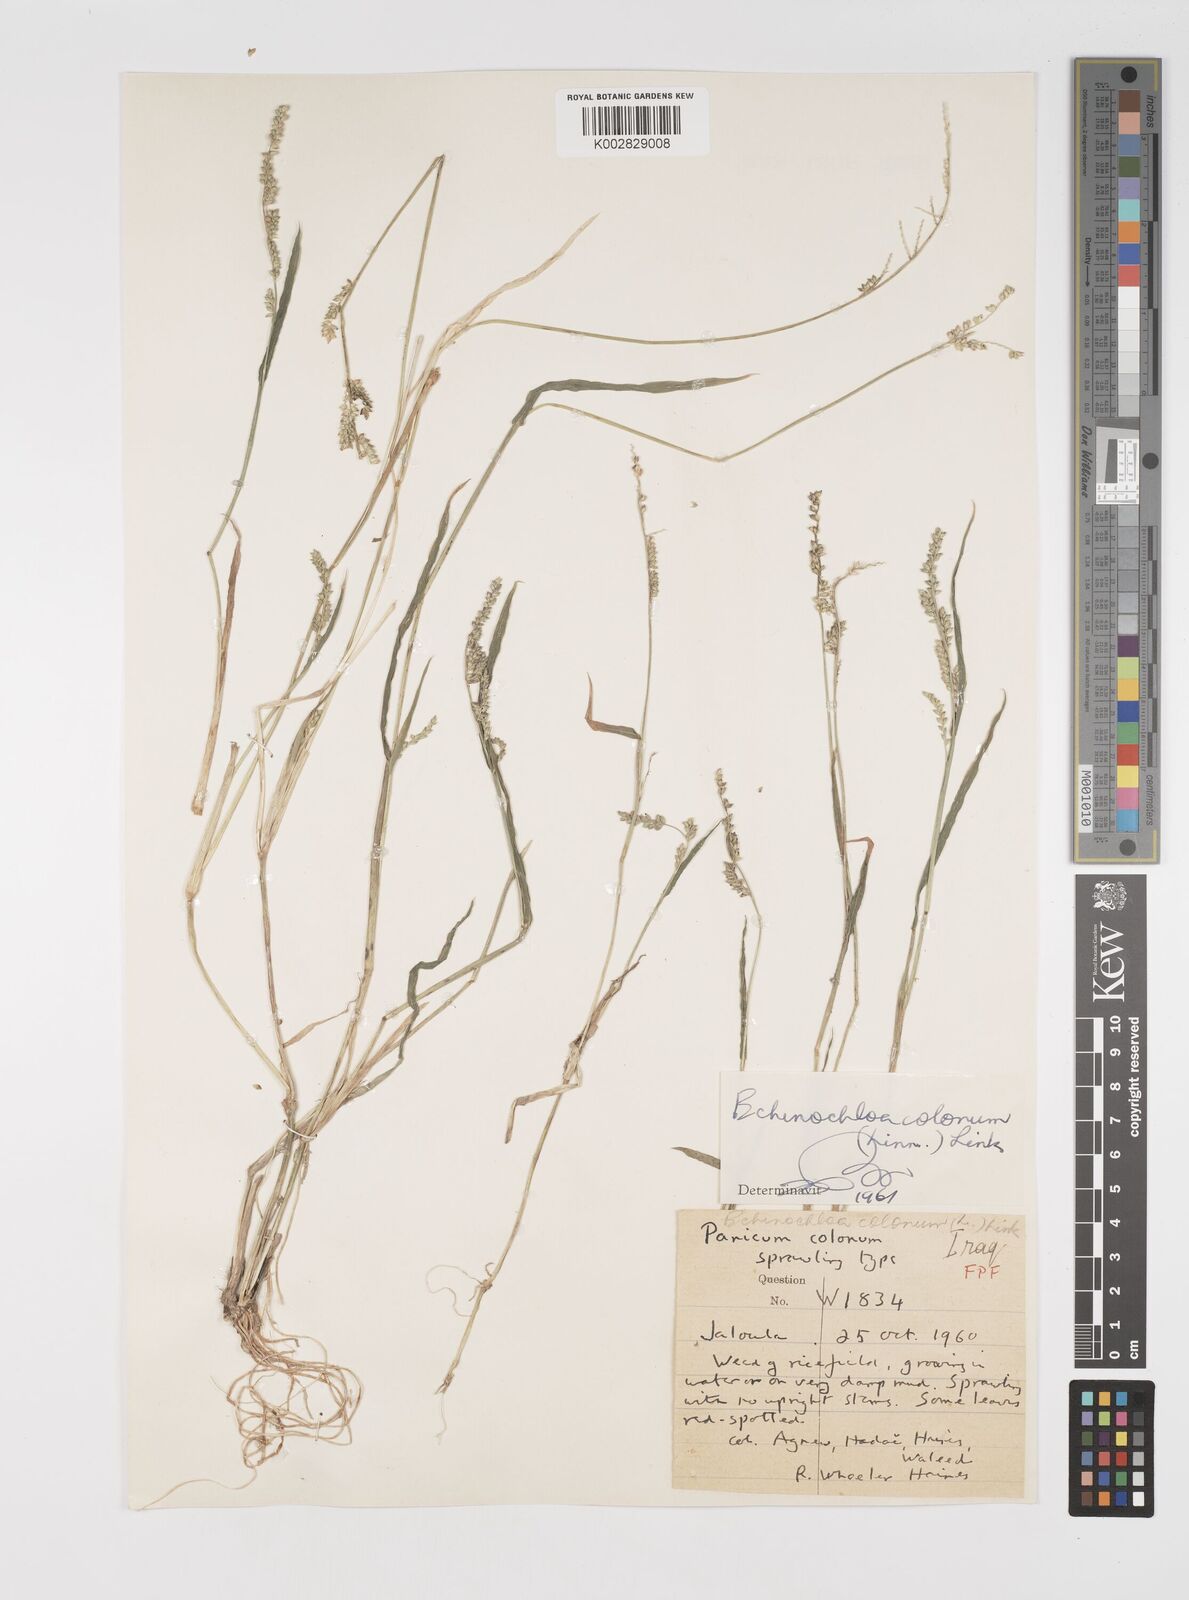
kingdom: Plantae
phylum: Tracheophyta
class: Liliopsida
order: Poales
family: Poaceae
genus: Echinochloa
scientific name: Echinochloa colonum
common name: Jungle rice
